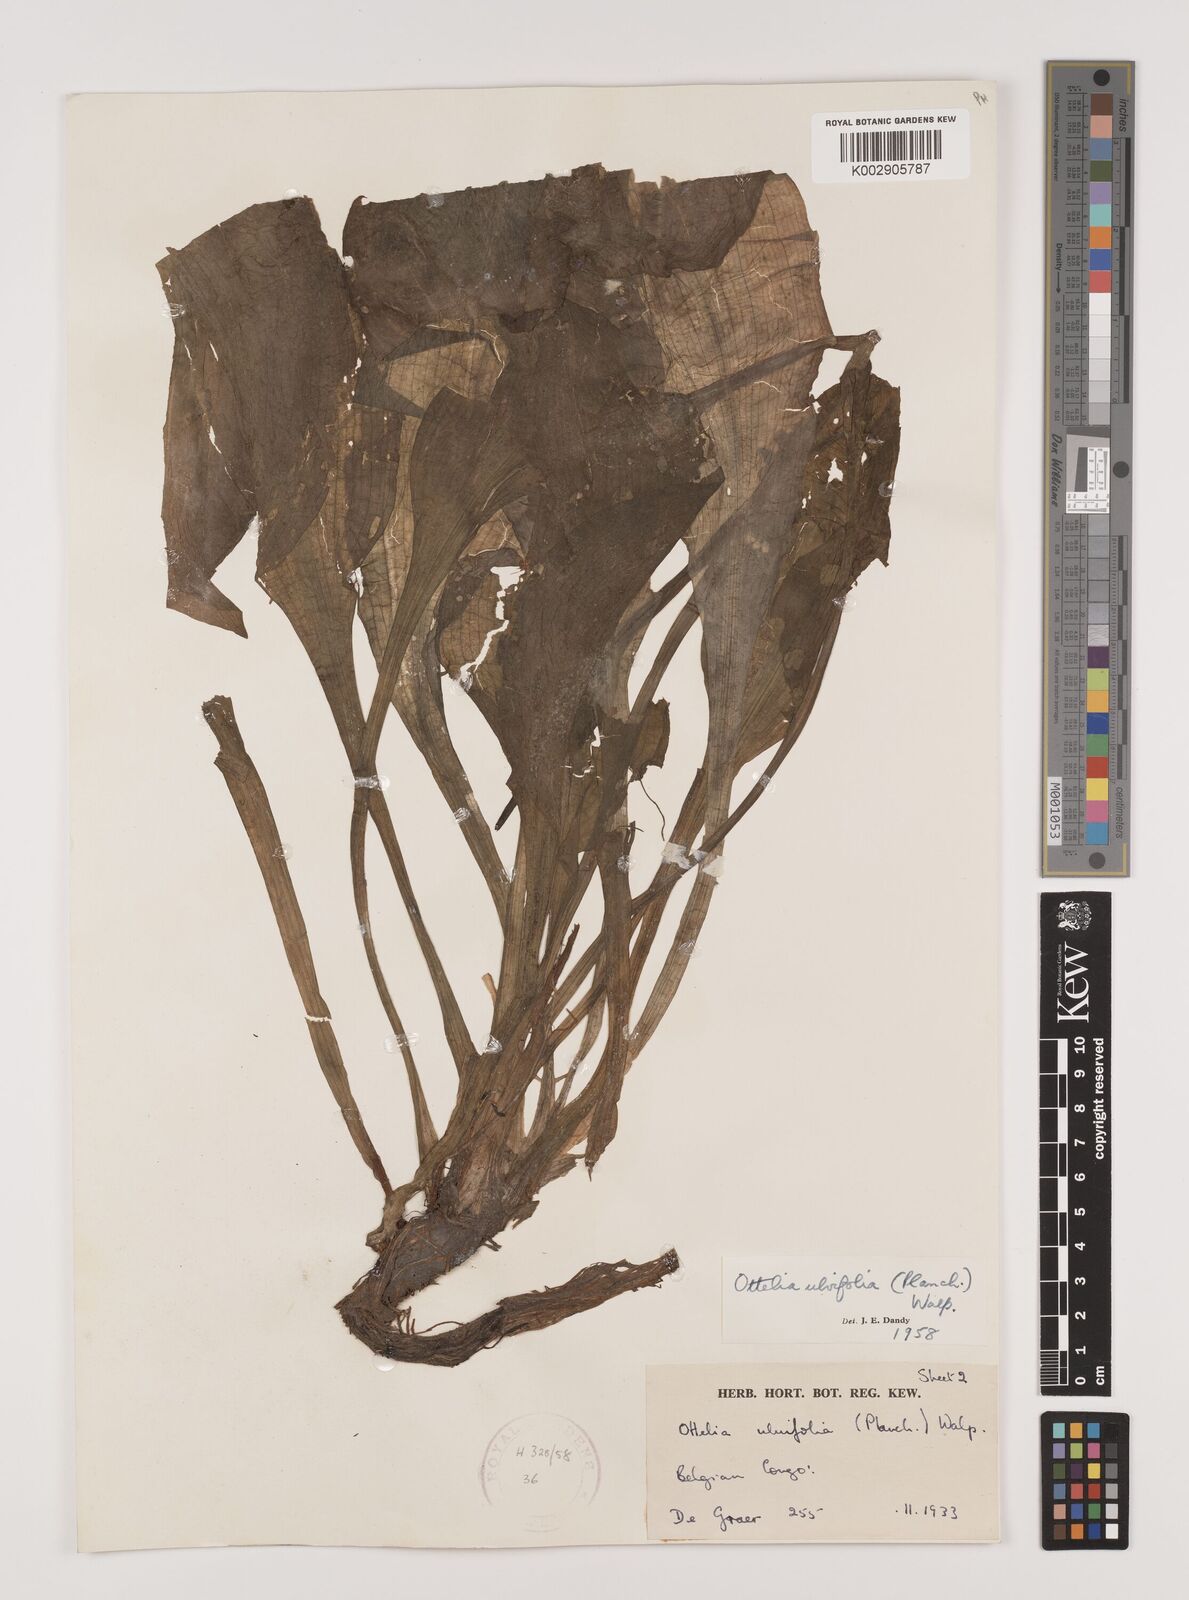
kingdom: Plantae
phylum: Tracheophyta
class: Liliopsida
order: Alismatales
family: Hydrocharitaceae
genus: Ottelia
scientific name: Ottelia ulvifolia
